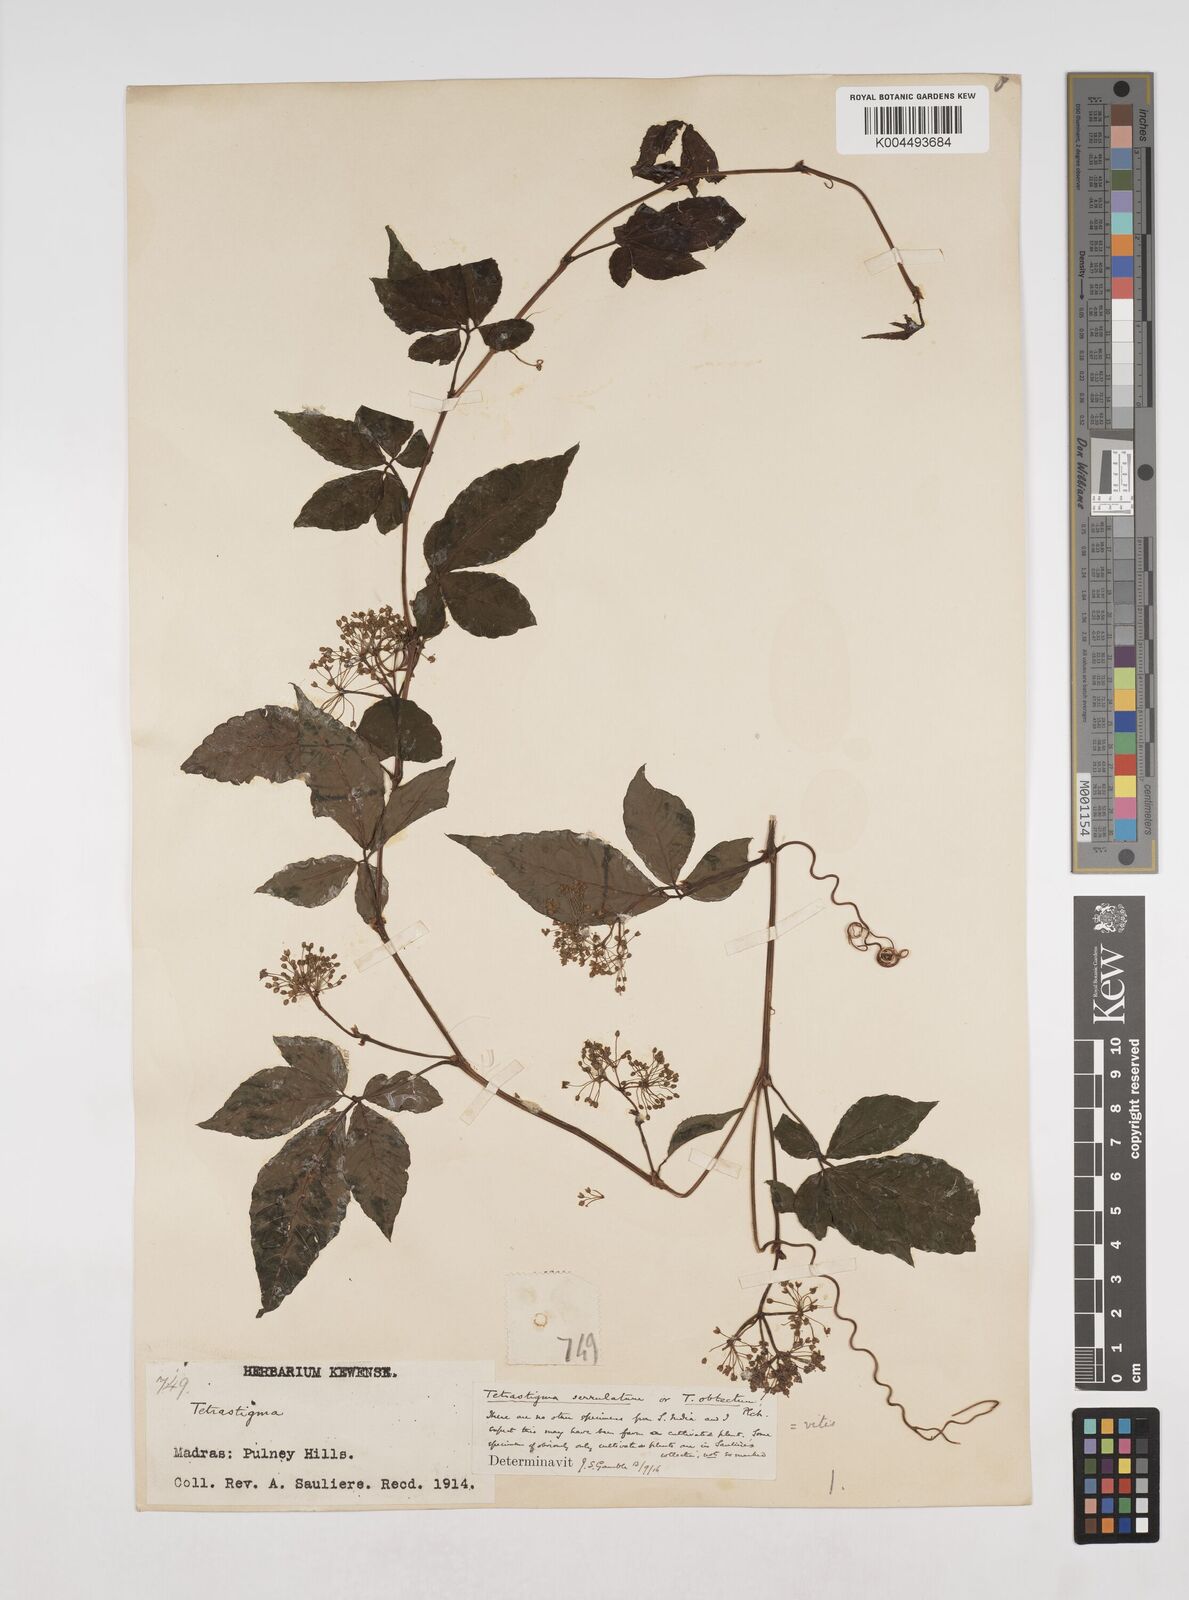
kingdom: Plantae
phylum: Tracheophyta
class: Magnoliopsida
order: Vitales
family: Vitaceae
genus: Tetrastigma
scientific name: Tetrastigma
